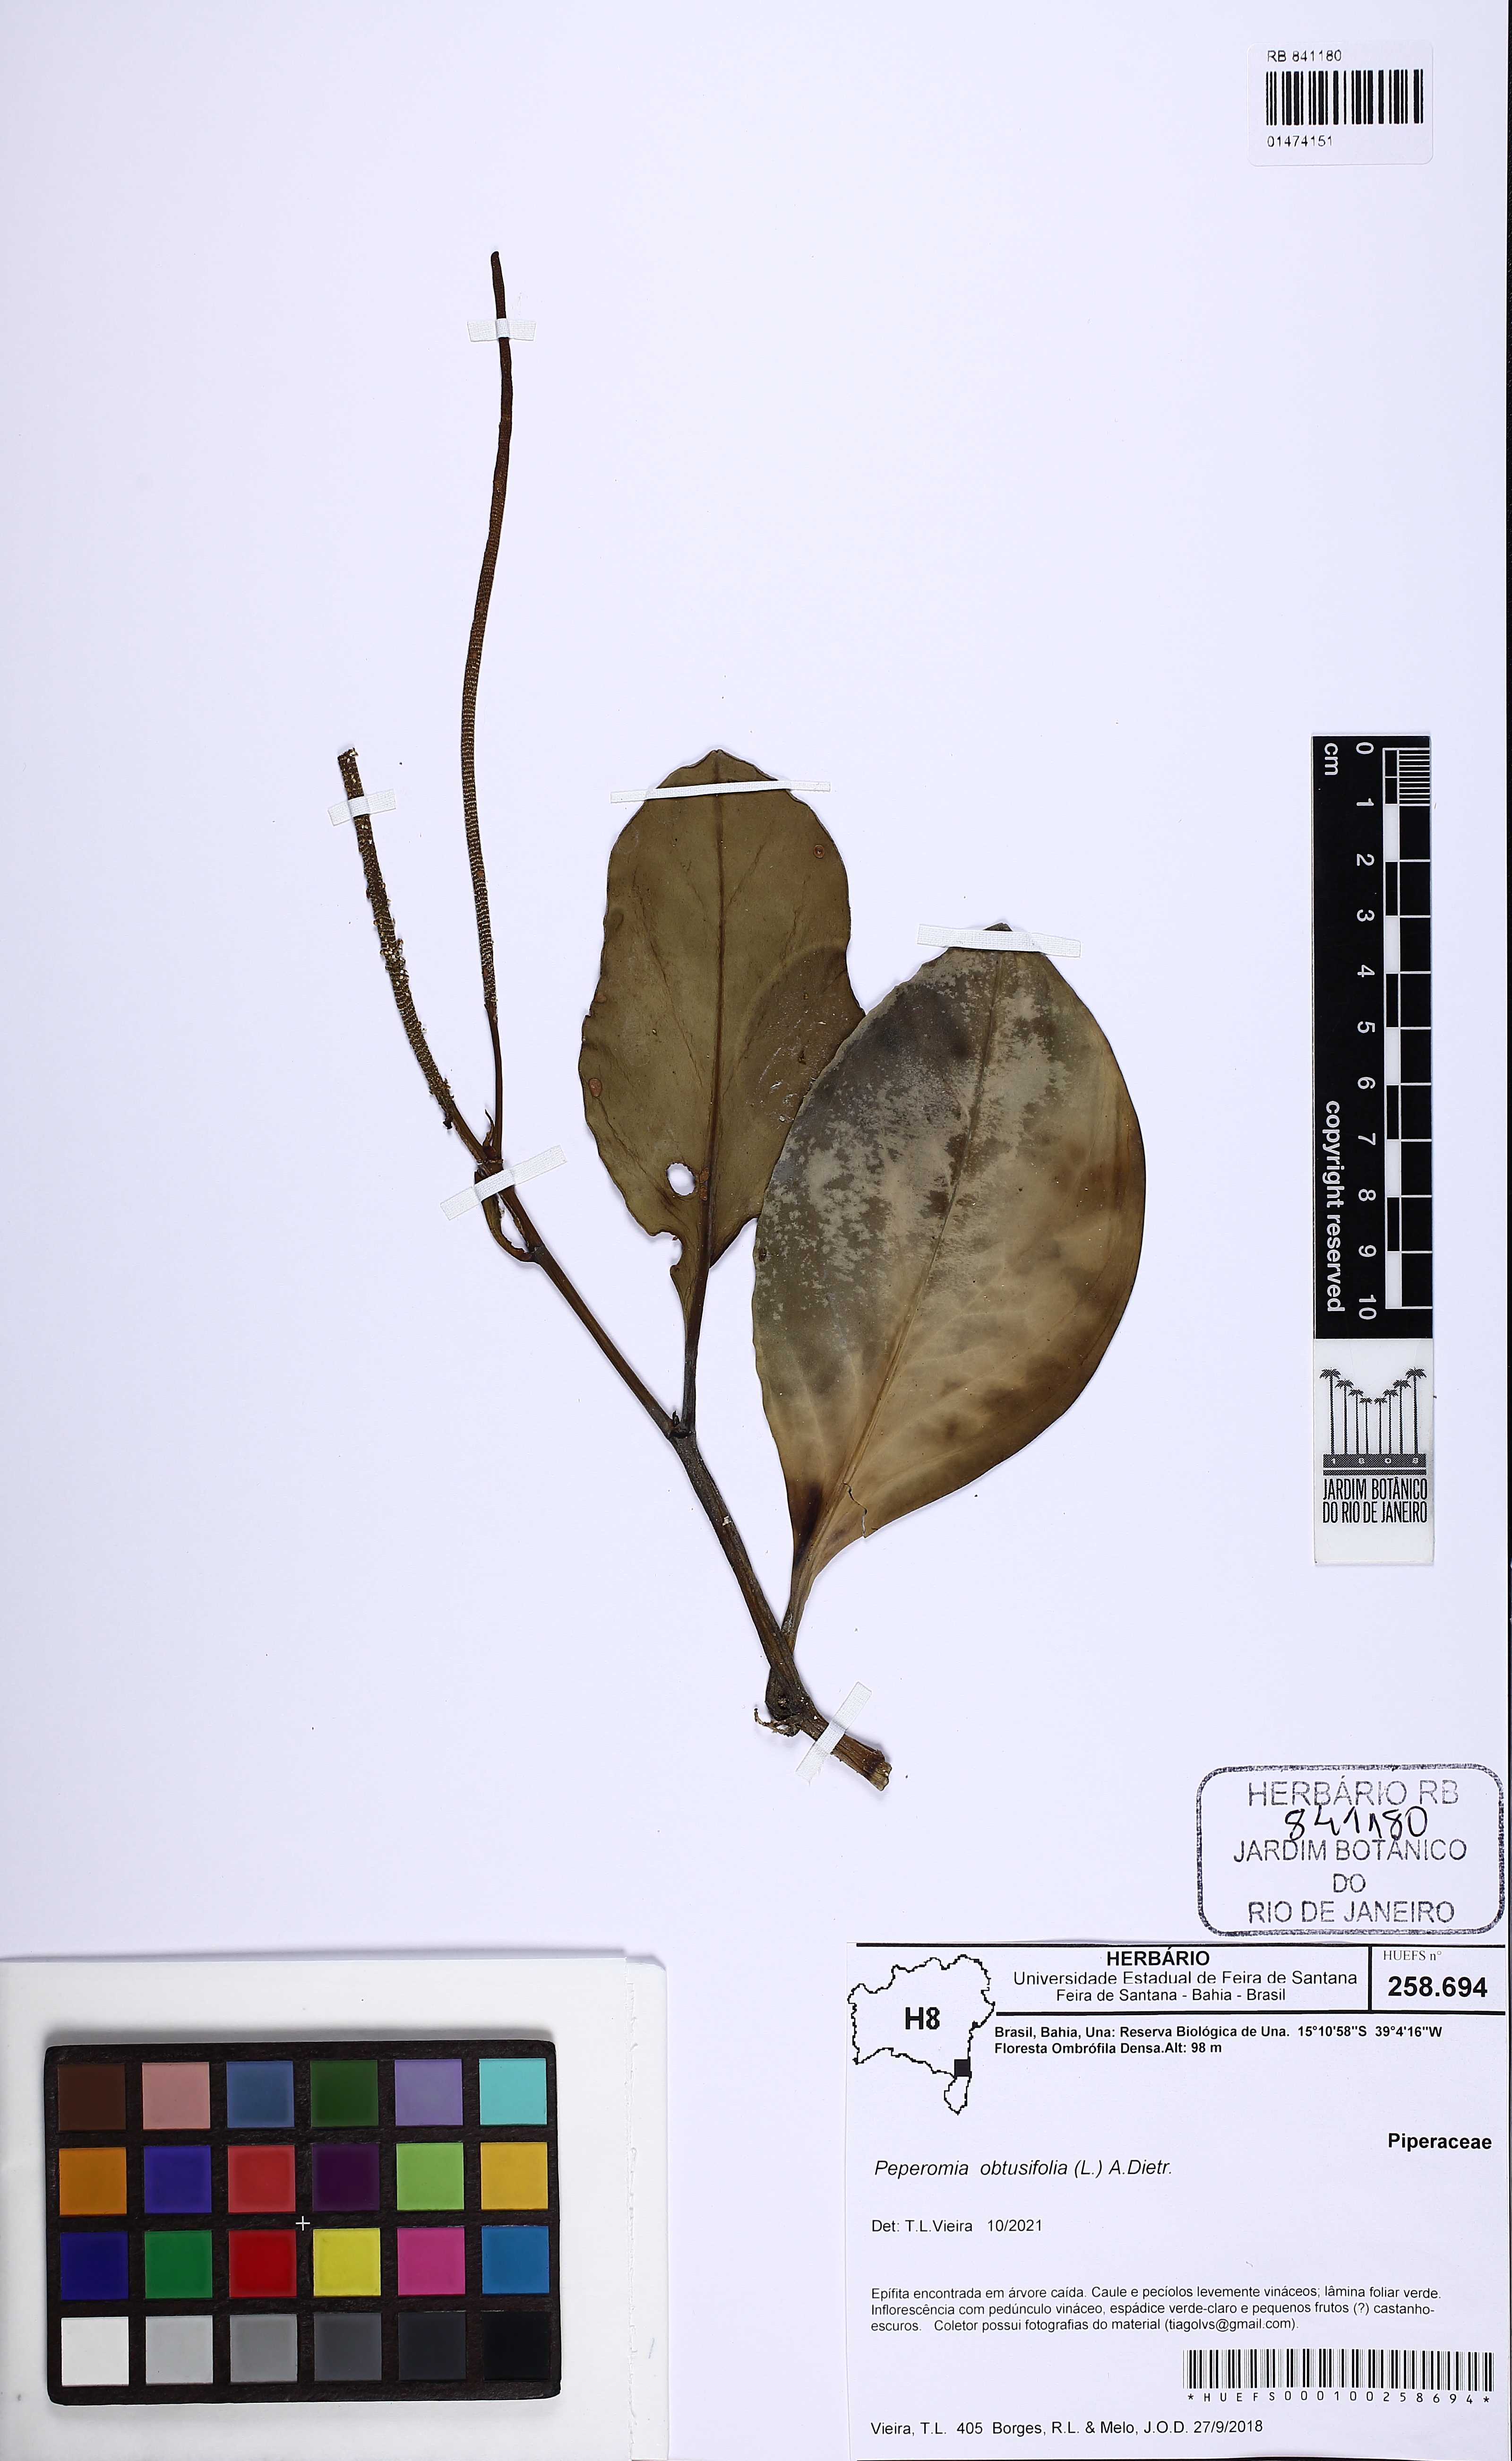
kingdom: Plantae
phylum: Tracheophyta
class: Magnoliopsida
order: Piperales
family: Piperaceae
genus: Peperomia
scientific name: Peperomia obtusifolia
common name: Baby rubberplant
